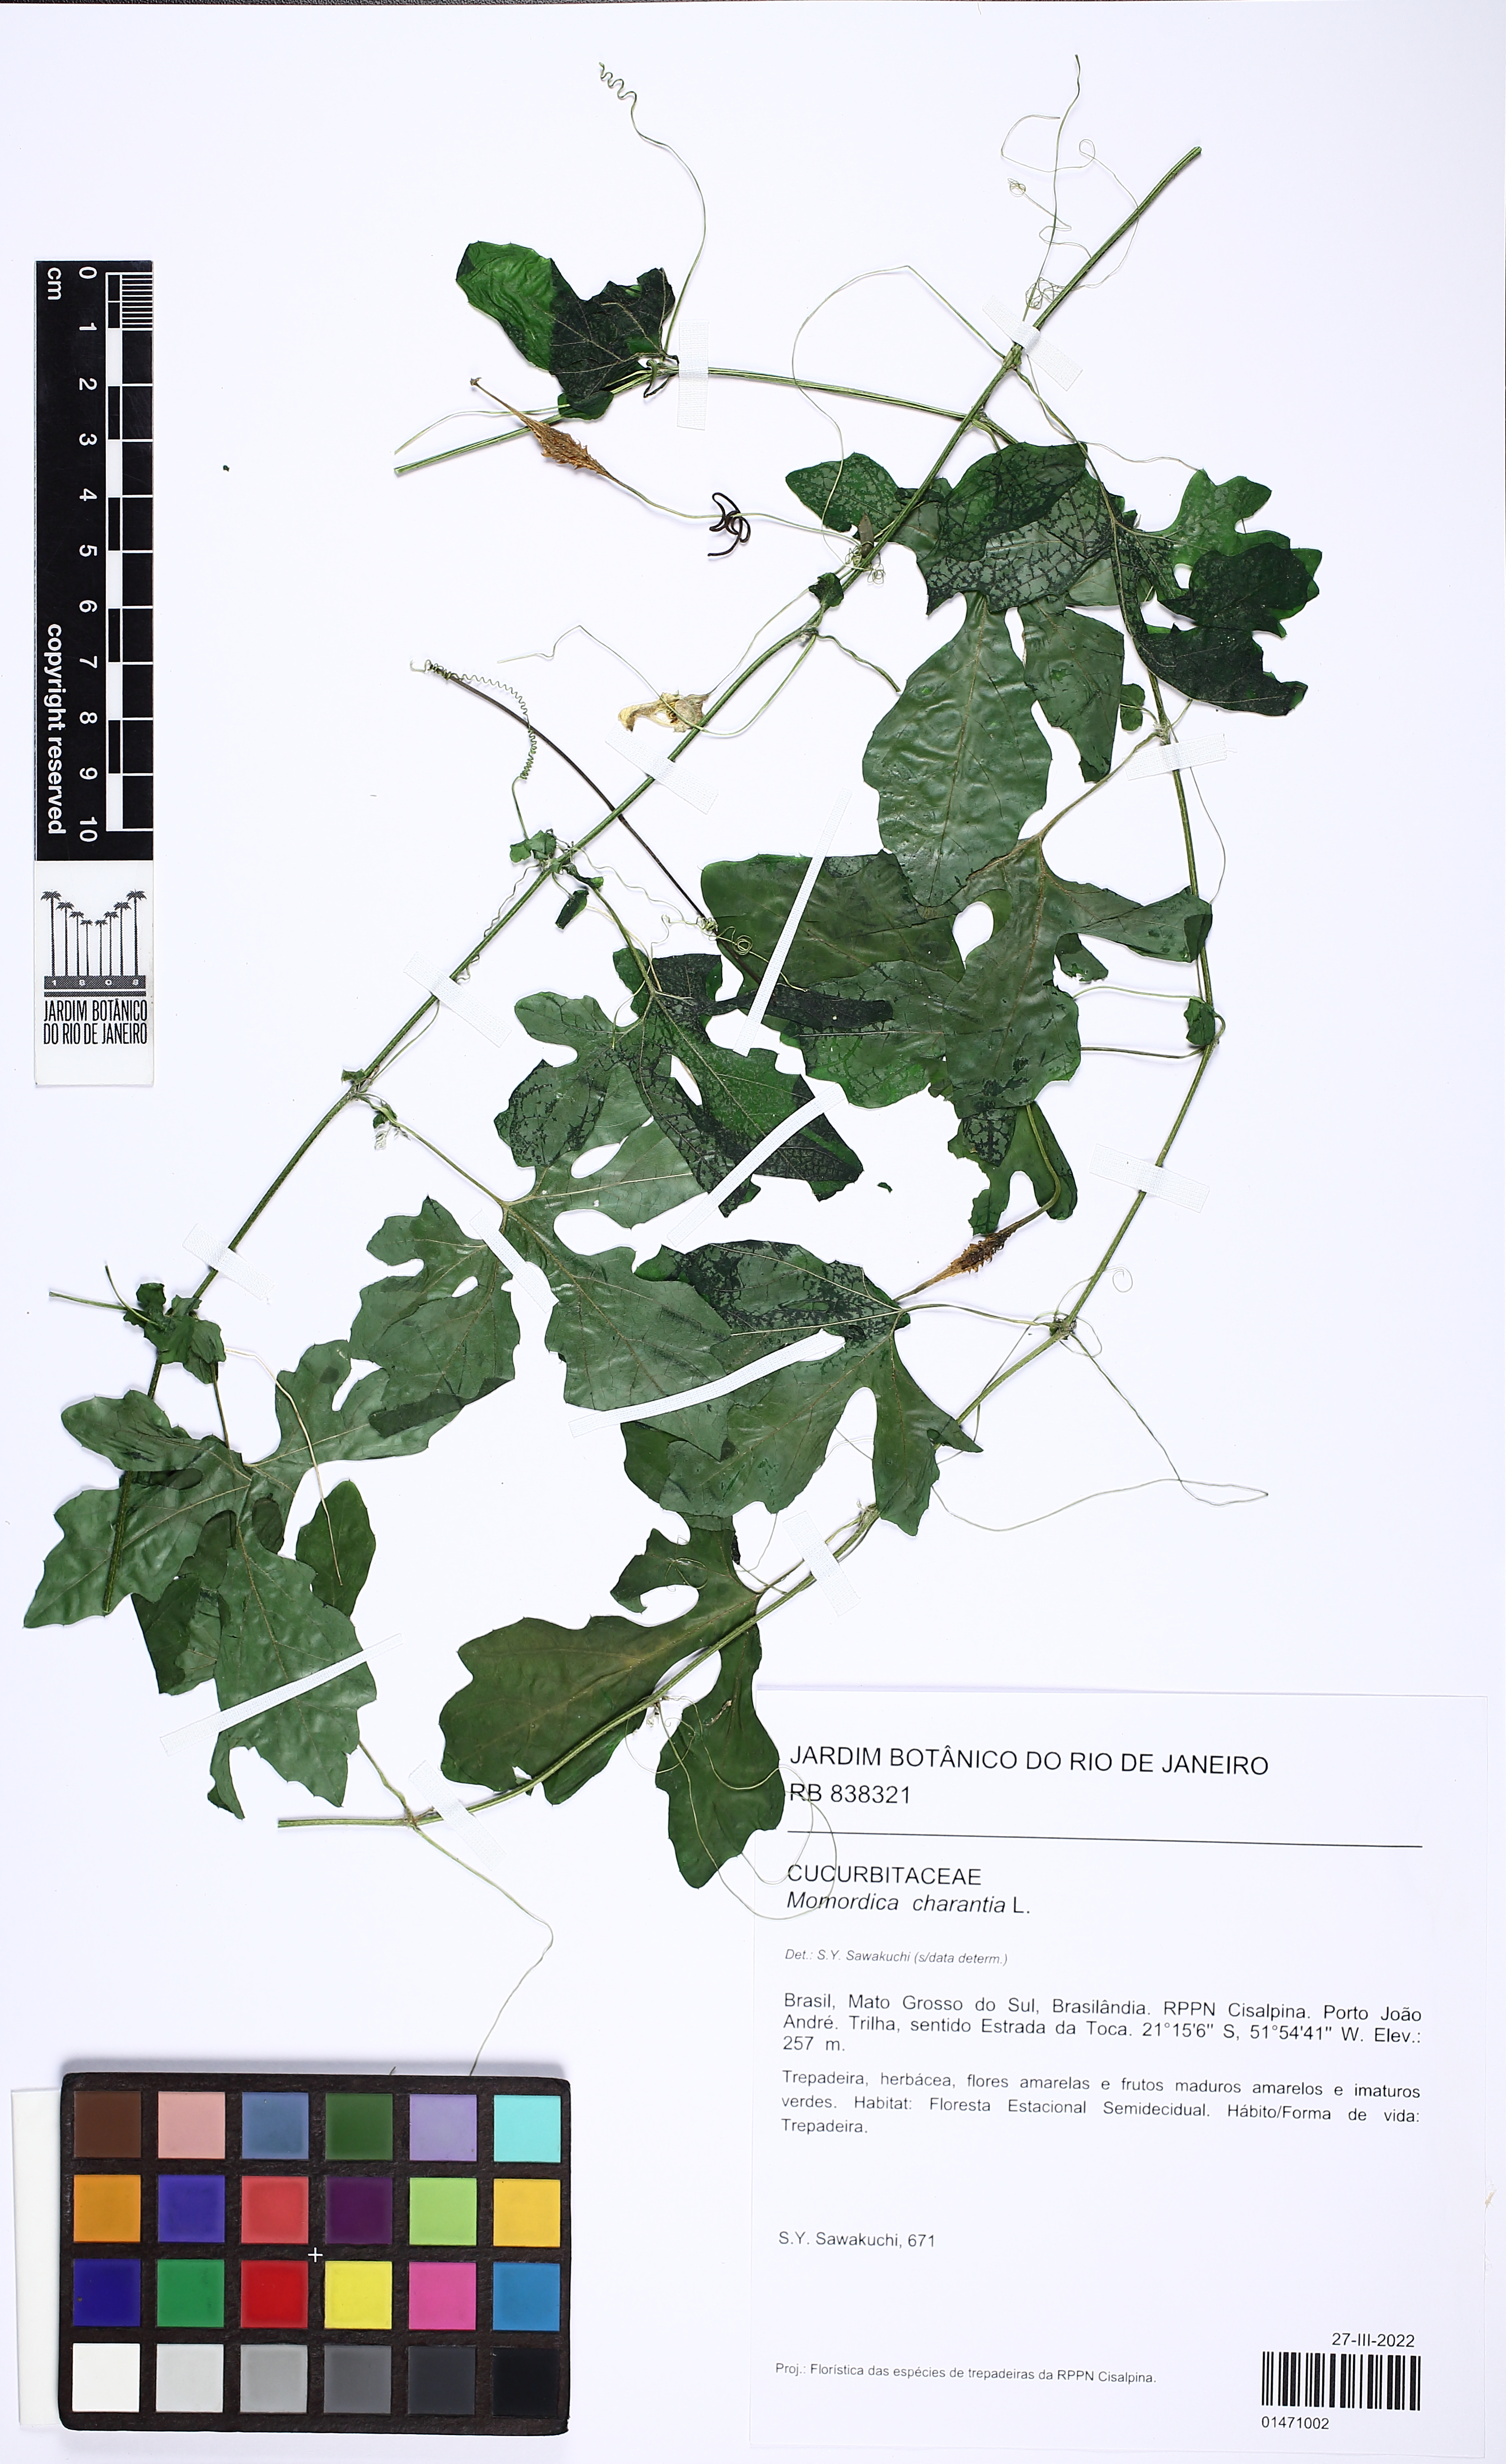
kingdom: Plantae
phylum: Tracheophyta
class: Magnoliopsida
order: Cucurbitales
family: Cucurbitaceae
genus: Momordica
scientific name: Momordica charantia
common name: Balsampear
